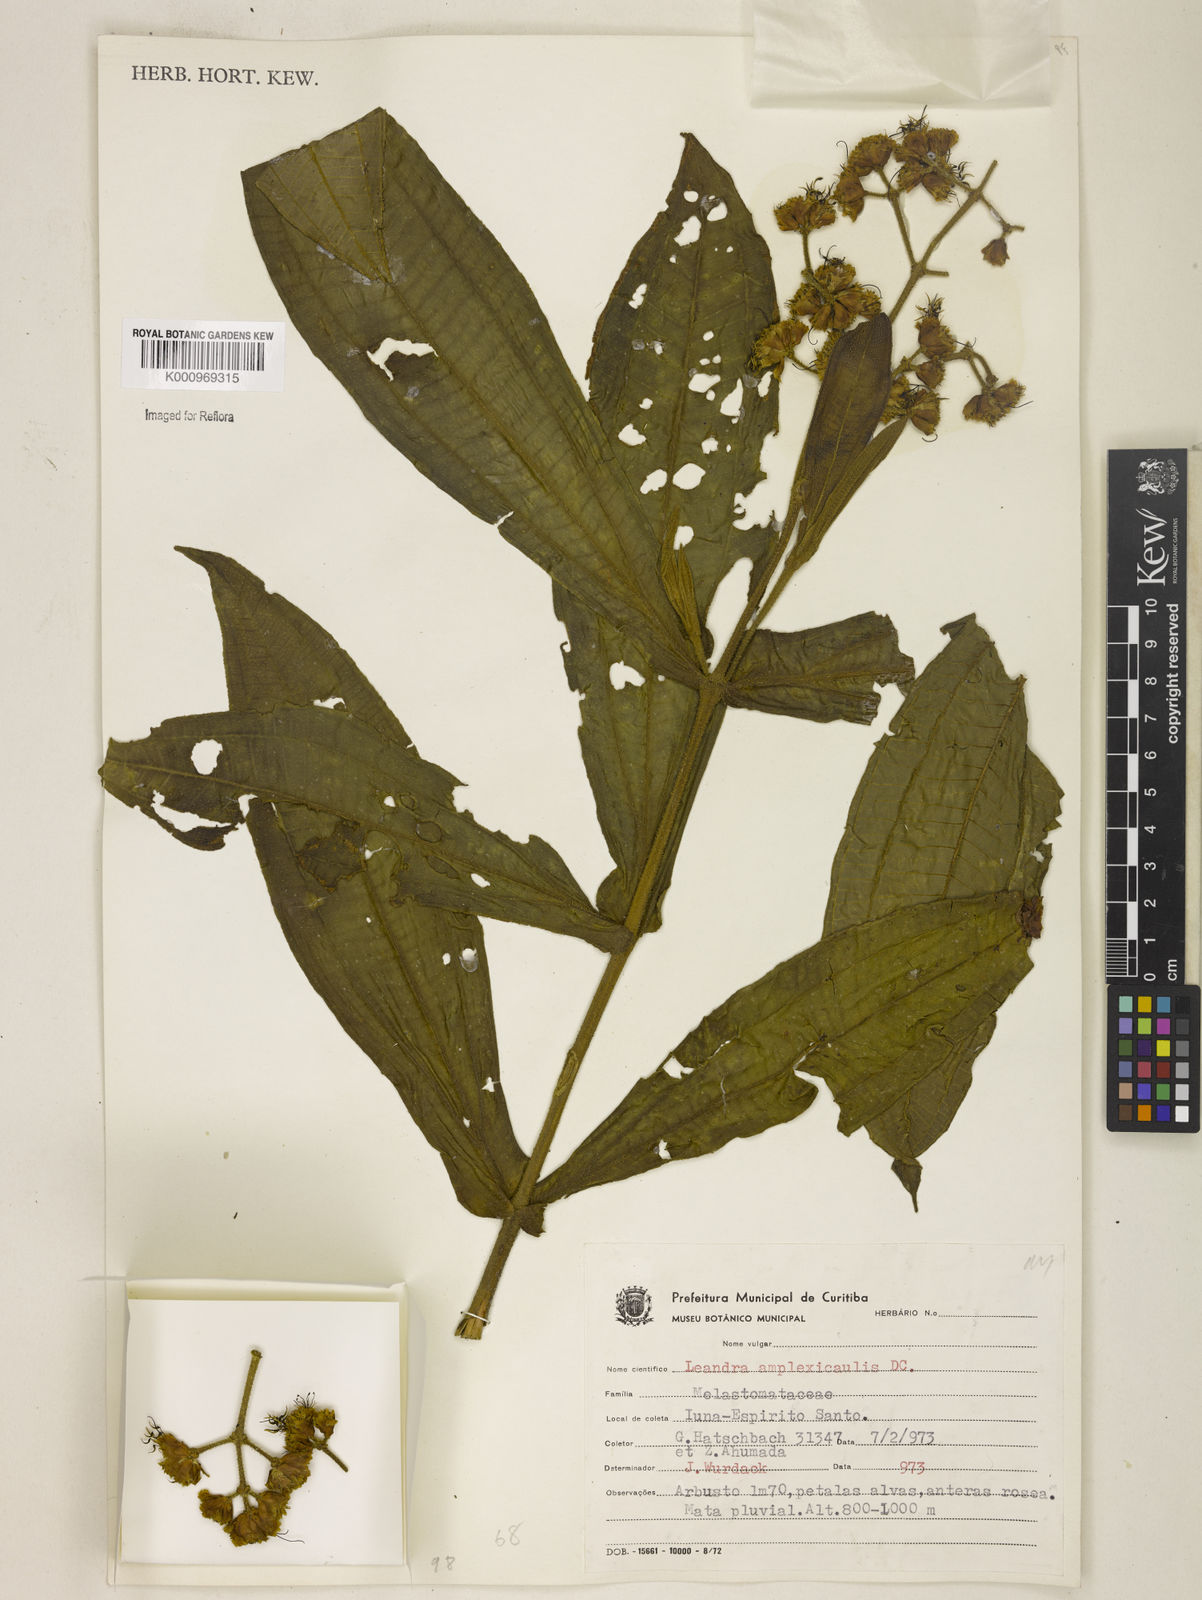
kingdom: Plantae
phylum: Tracheophyta
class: Magnoliopsida
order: Myrtales
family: Melastomataceae
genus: Miconia
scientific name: Miconia pectinata
